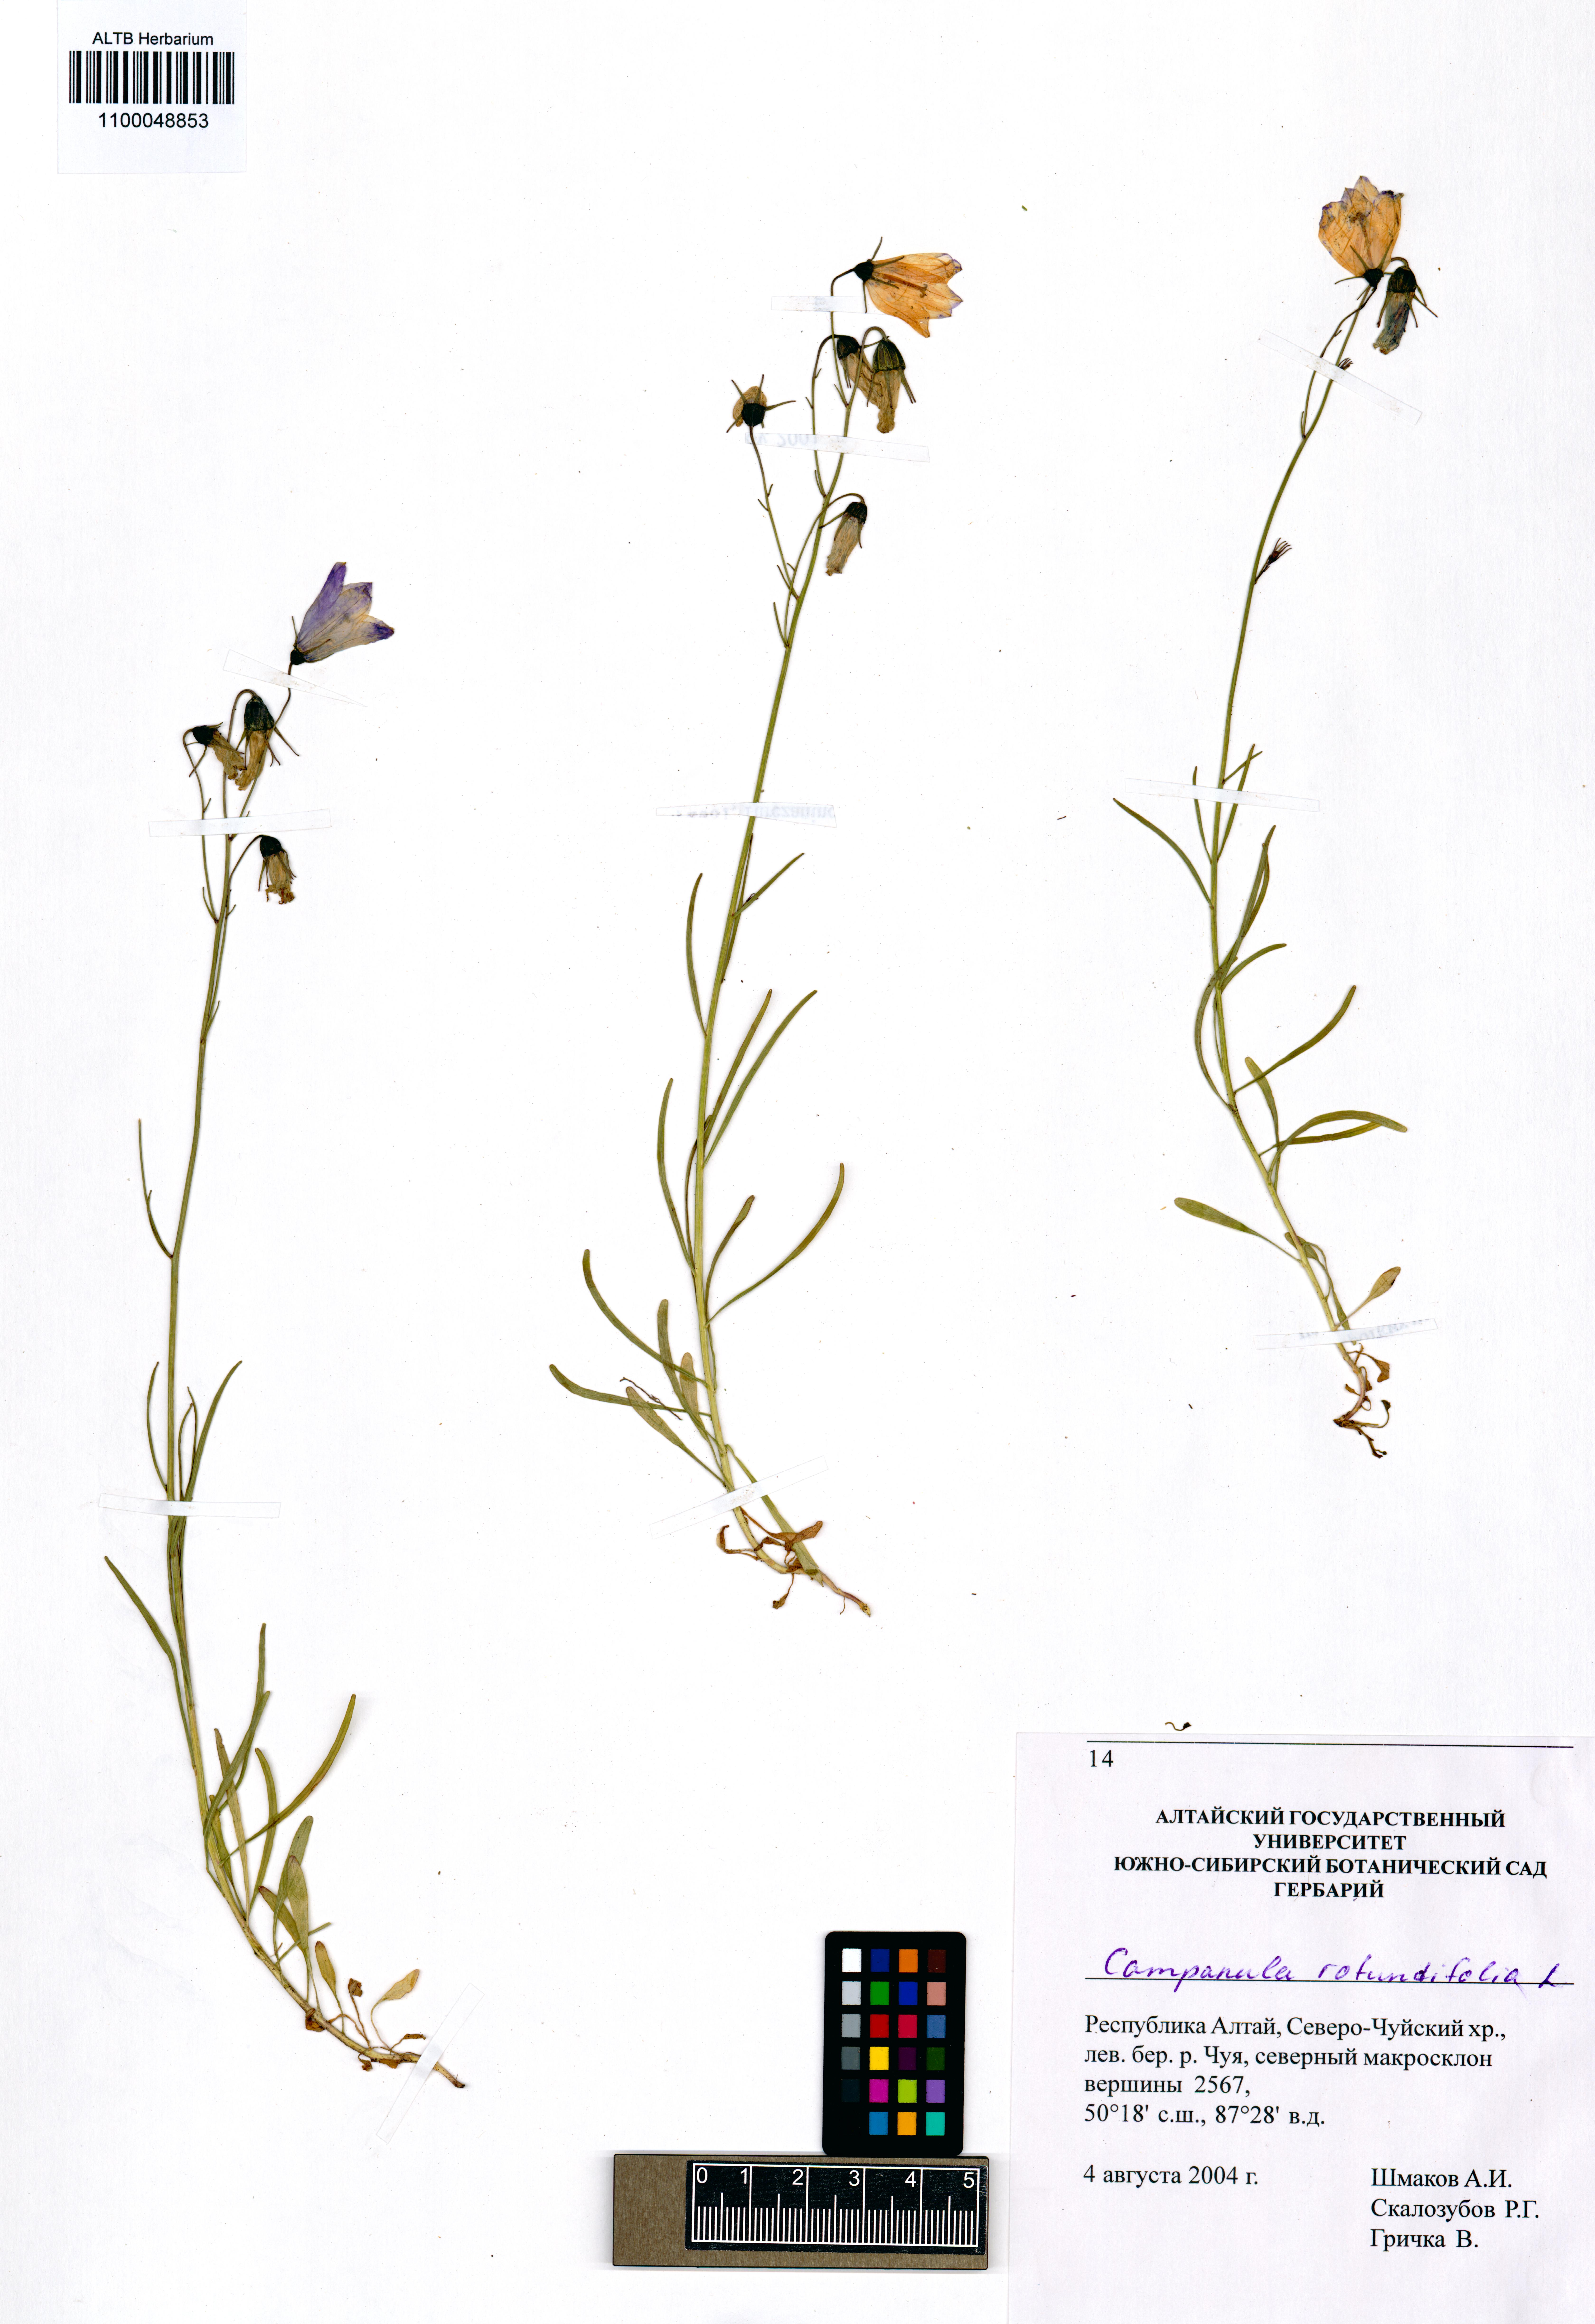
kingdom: Plantae
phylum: Tracheophyta
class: Magnoliopsida
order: Asterales
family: Campanulaceae
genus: Campanula
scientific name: Campanula rotundifolia
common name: Harebell
